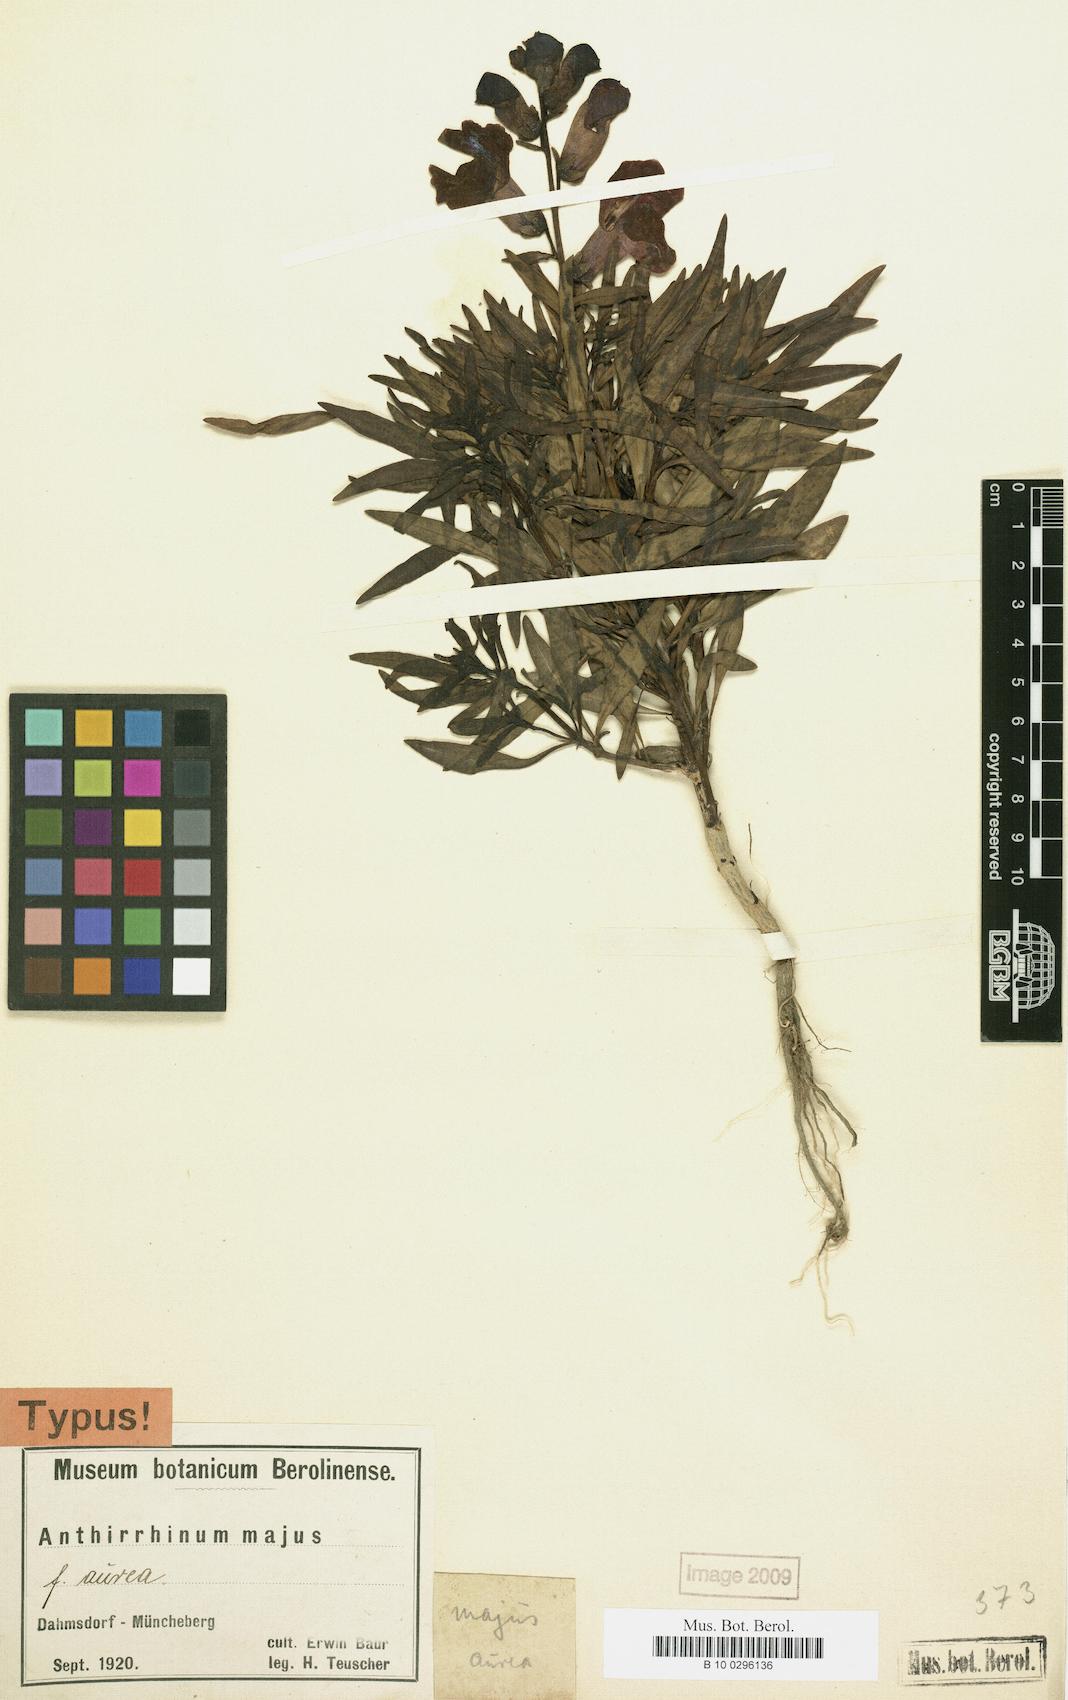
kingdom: Plantae
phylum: Tracheophyta
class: Magnoliopsida
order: Lamiales
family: Plantaginaceae
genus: Antirrhinum
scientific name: Antirrhinum majus
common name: Snapdragon
